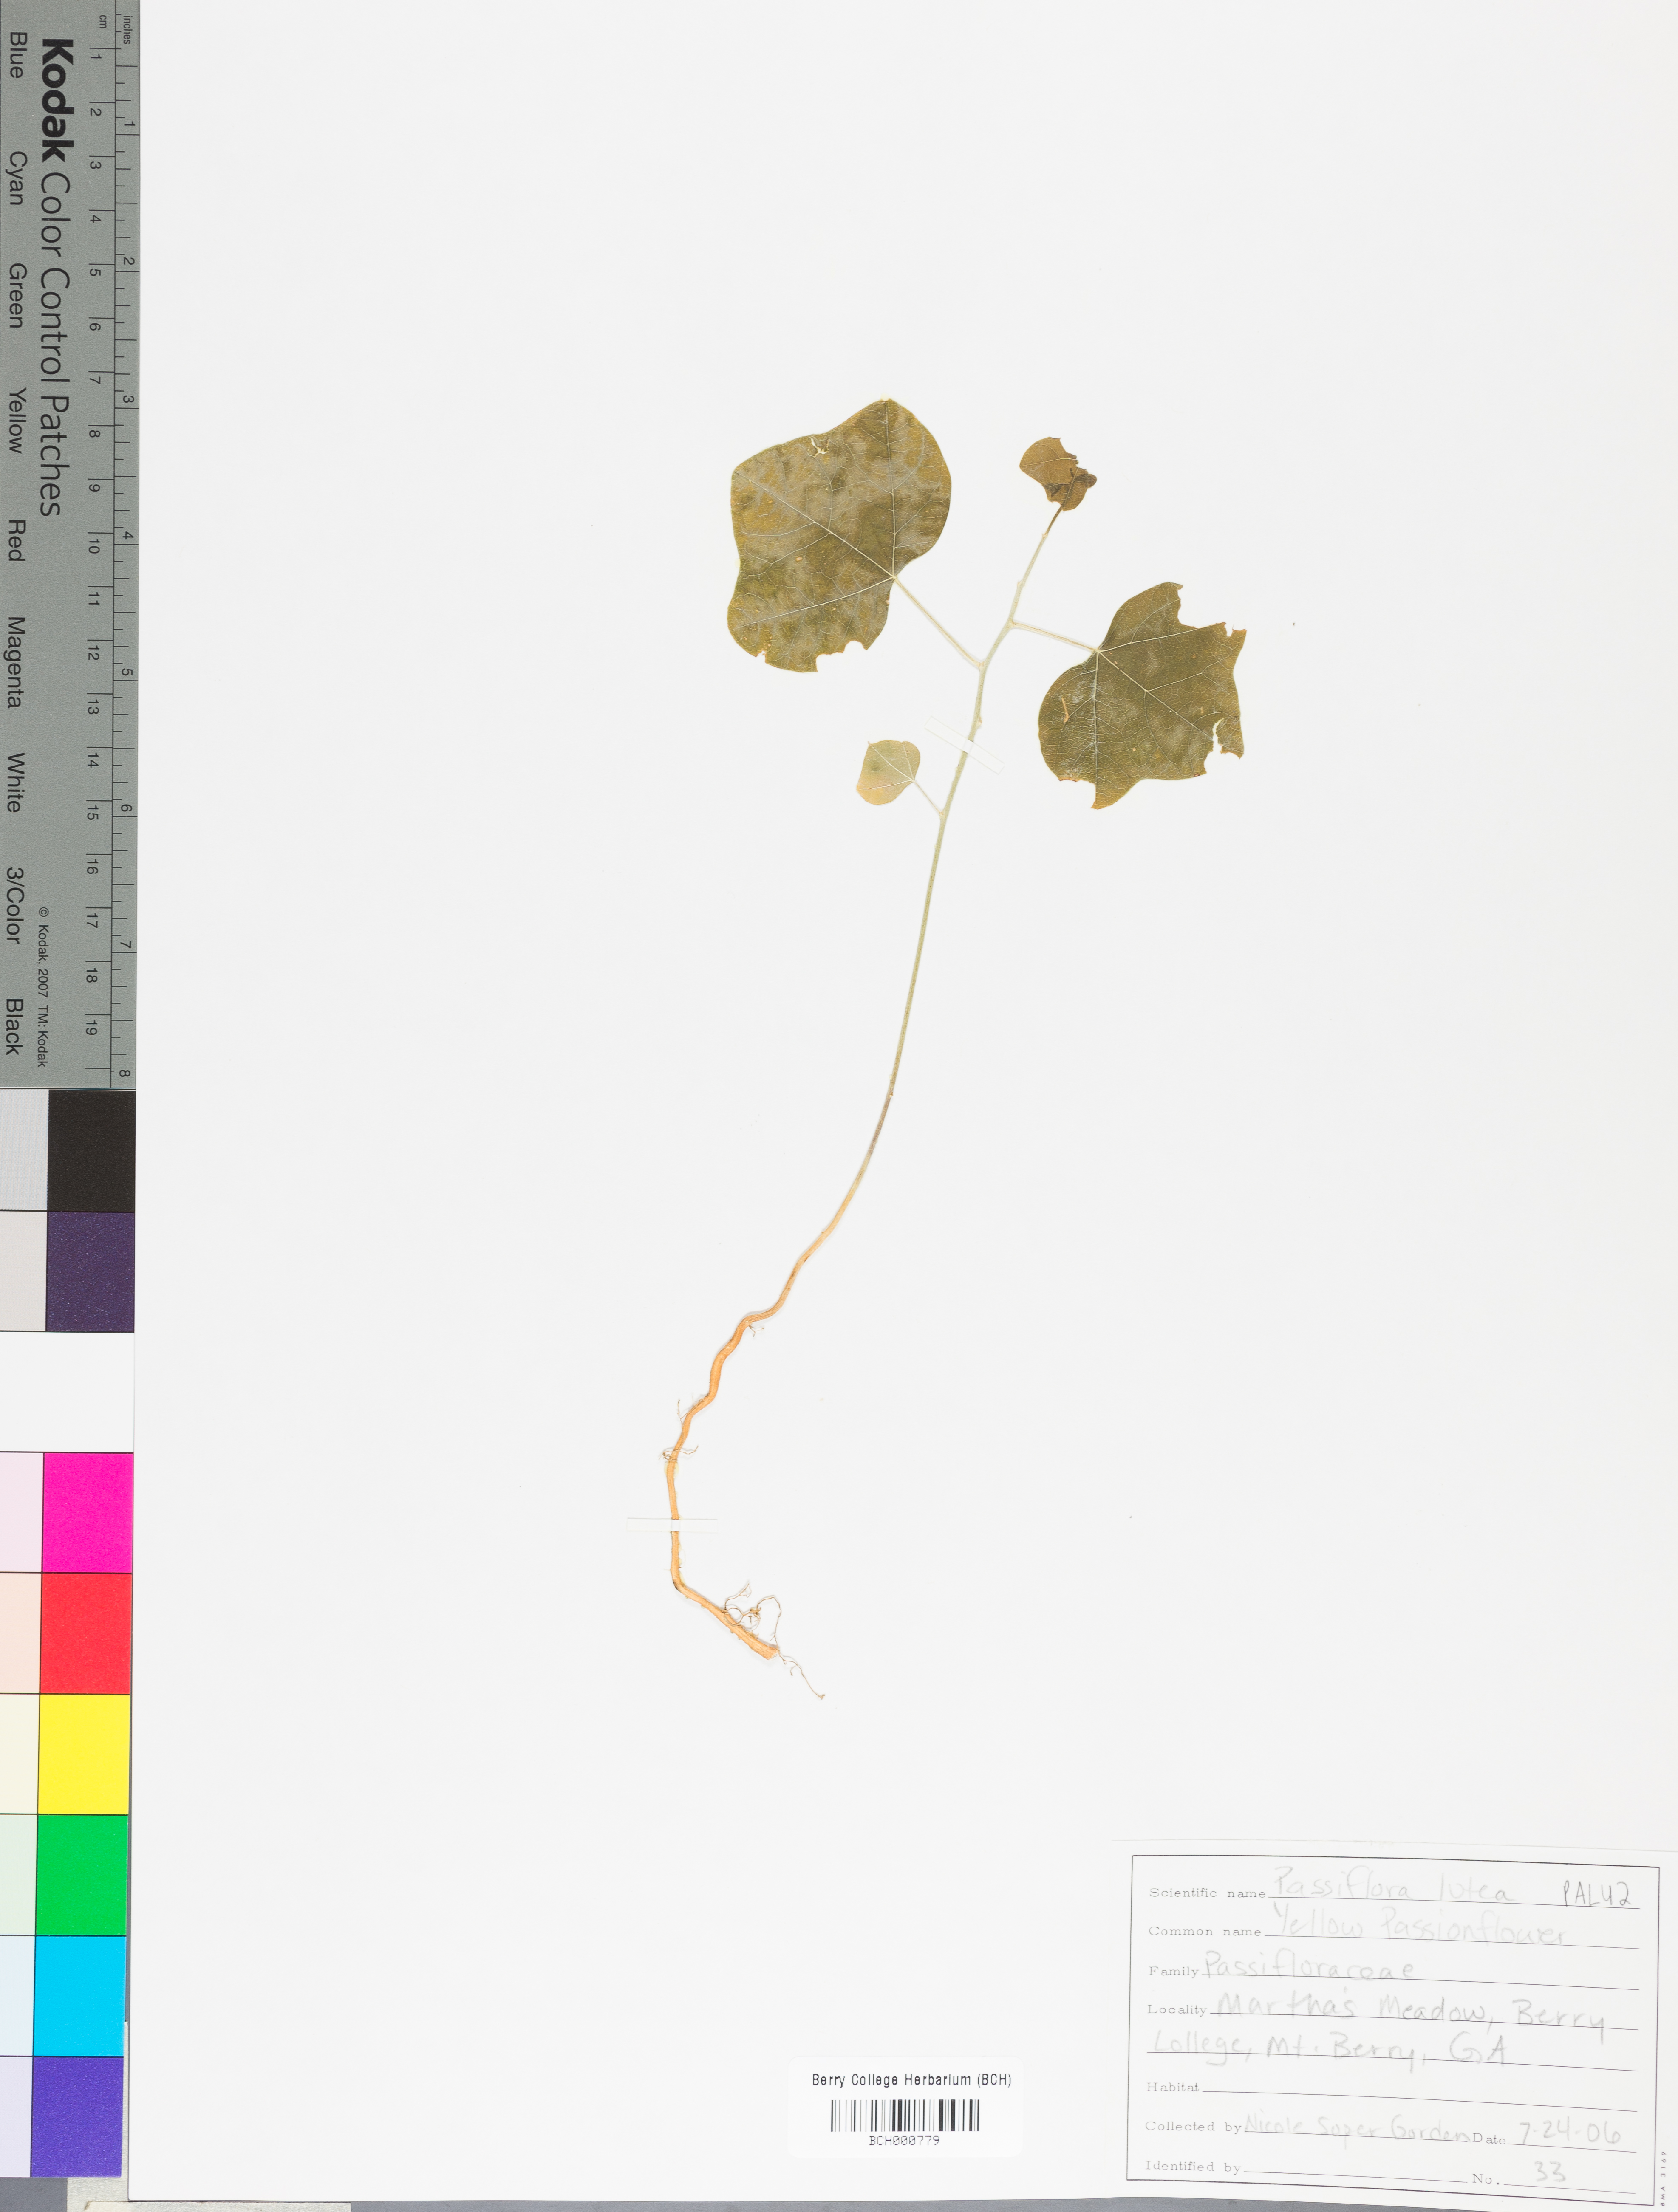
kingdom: Plantae
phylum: Tracheophyta
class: Magnoliopsida
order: Malpighiales
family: Passifloraceae
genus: Passiflora
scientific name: Passiflora lutea
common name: Yellow passionflower
